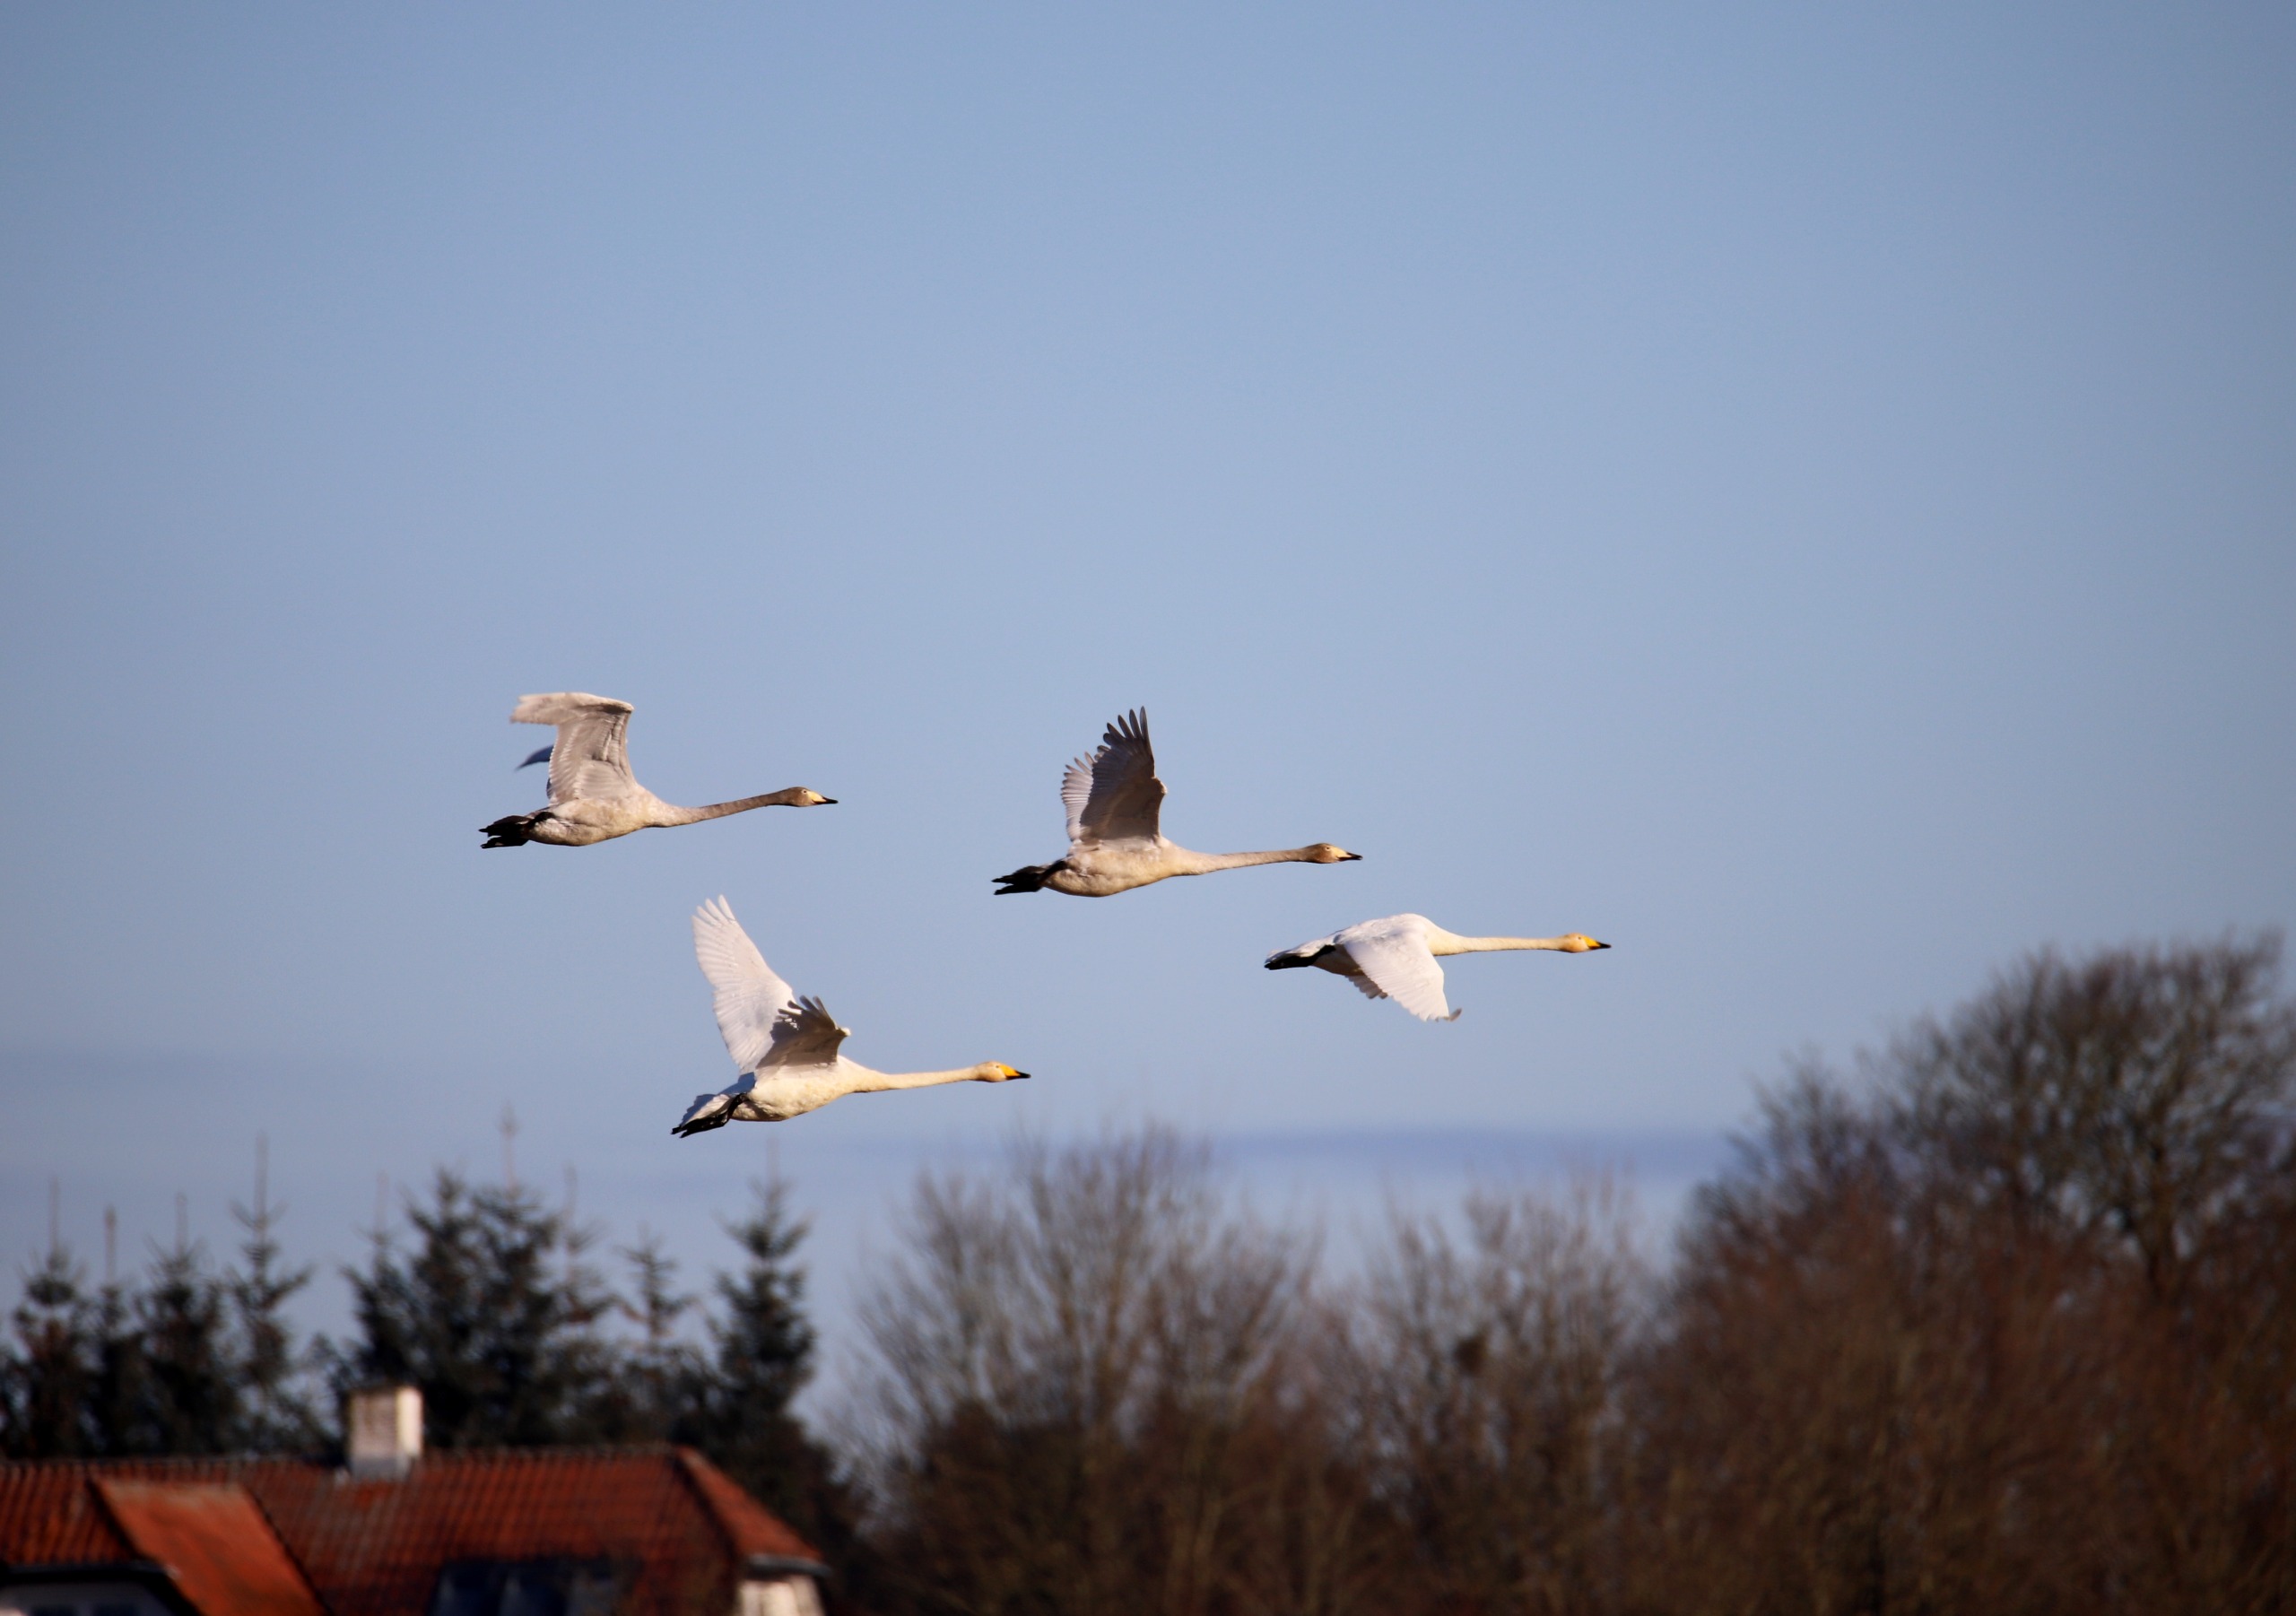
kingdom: Animalia
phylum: Chordata
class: Aves
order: Anseriformes
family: Anatidae
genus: Cygnus
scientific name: Cygnus cygnus
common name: Sangsvane
